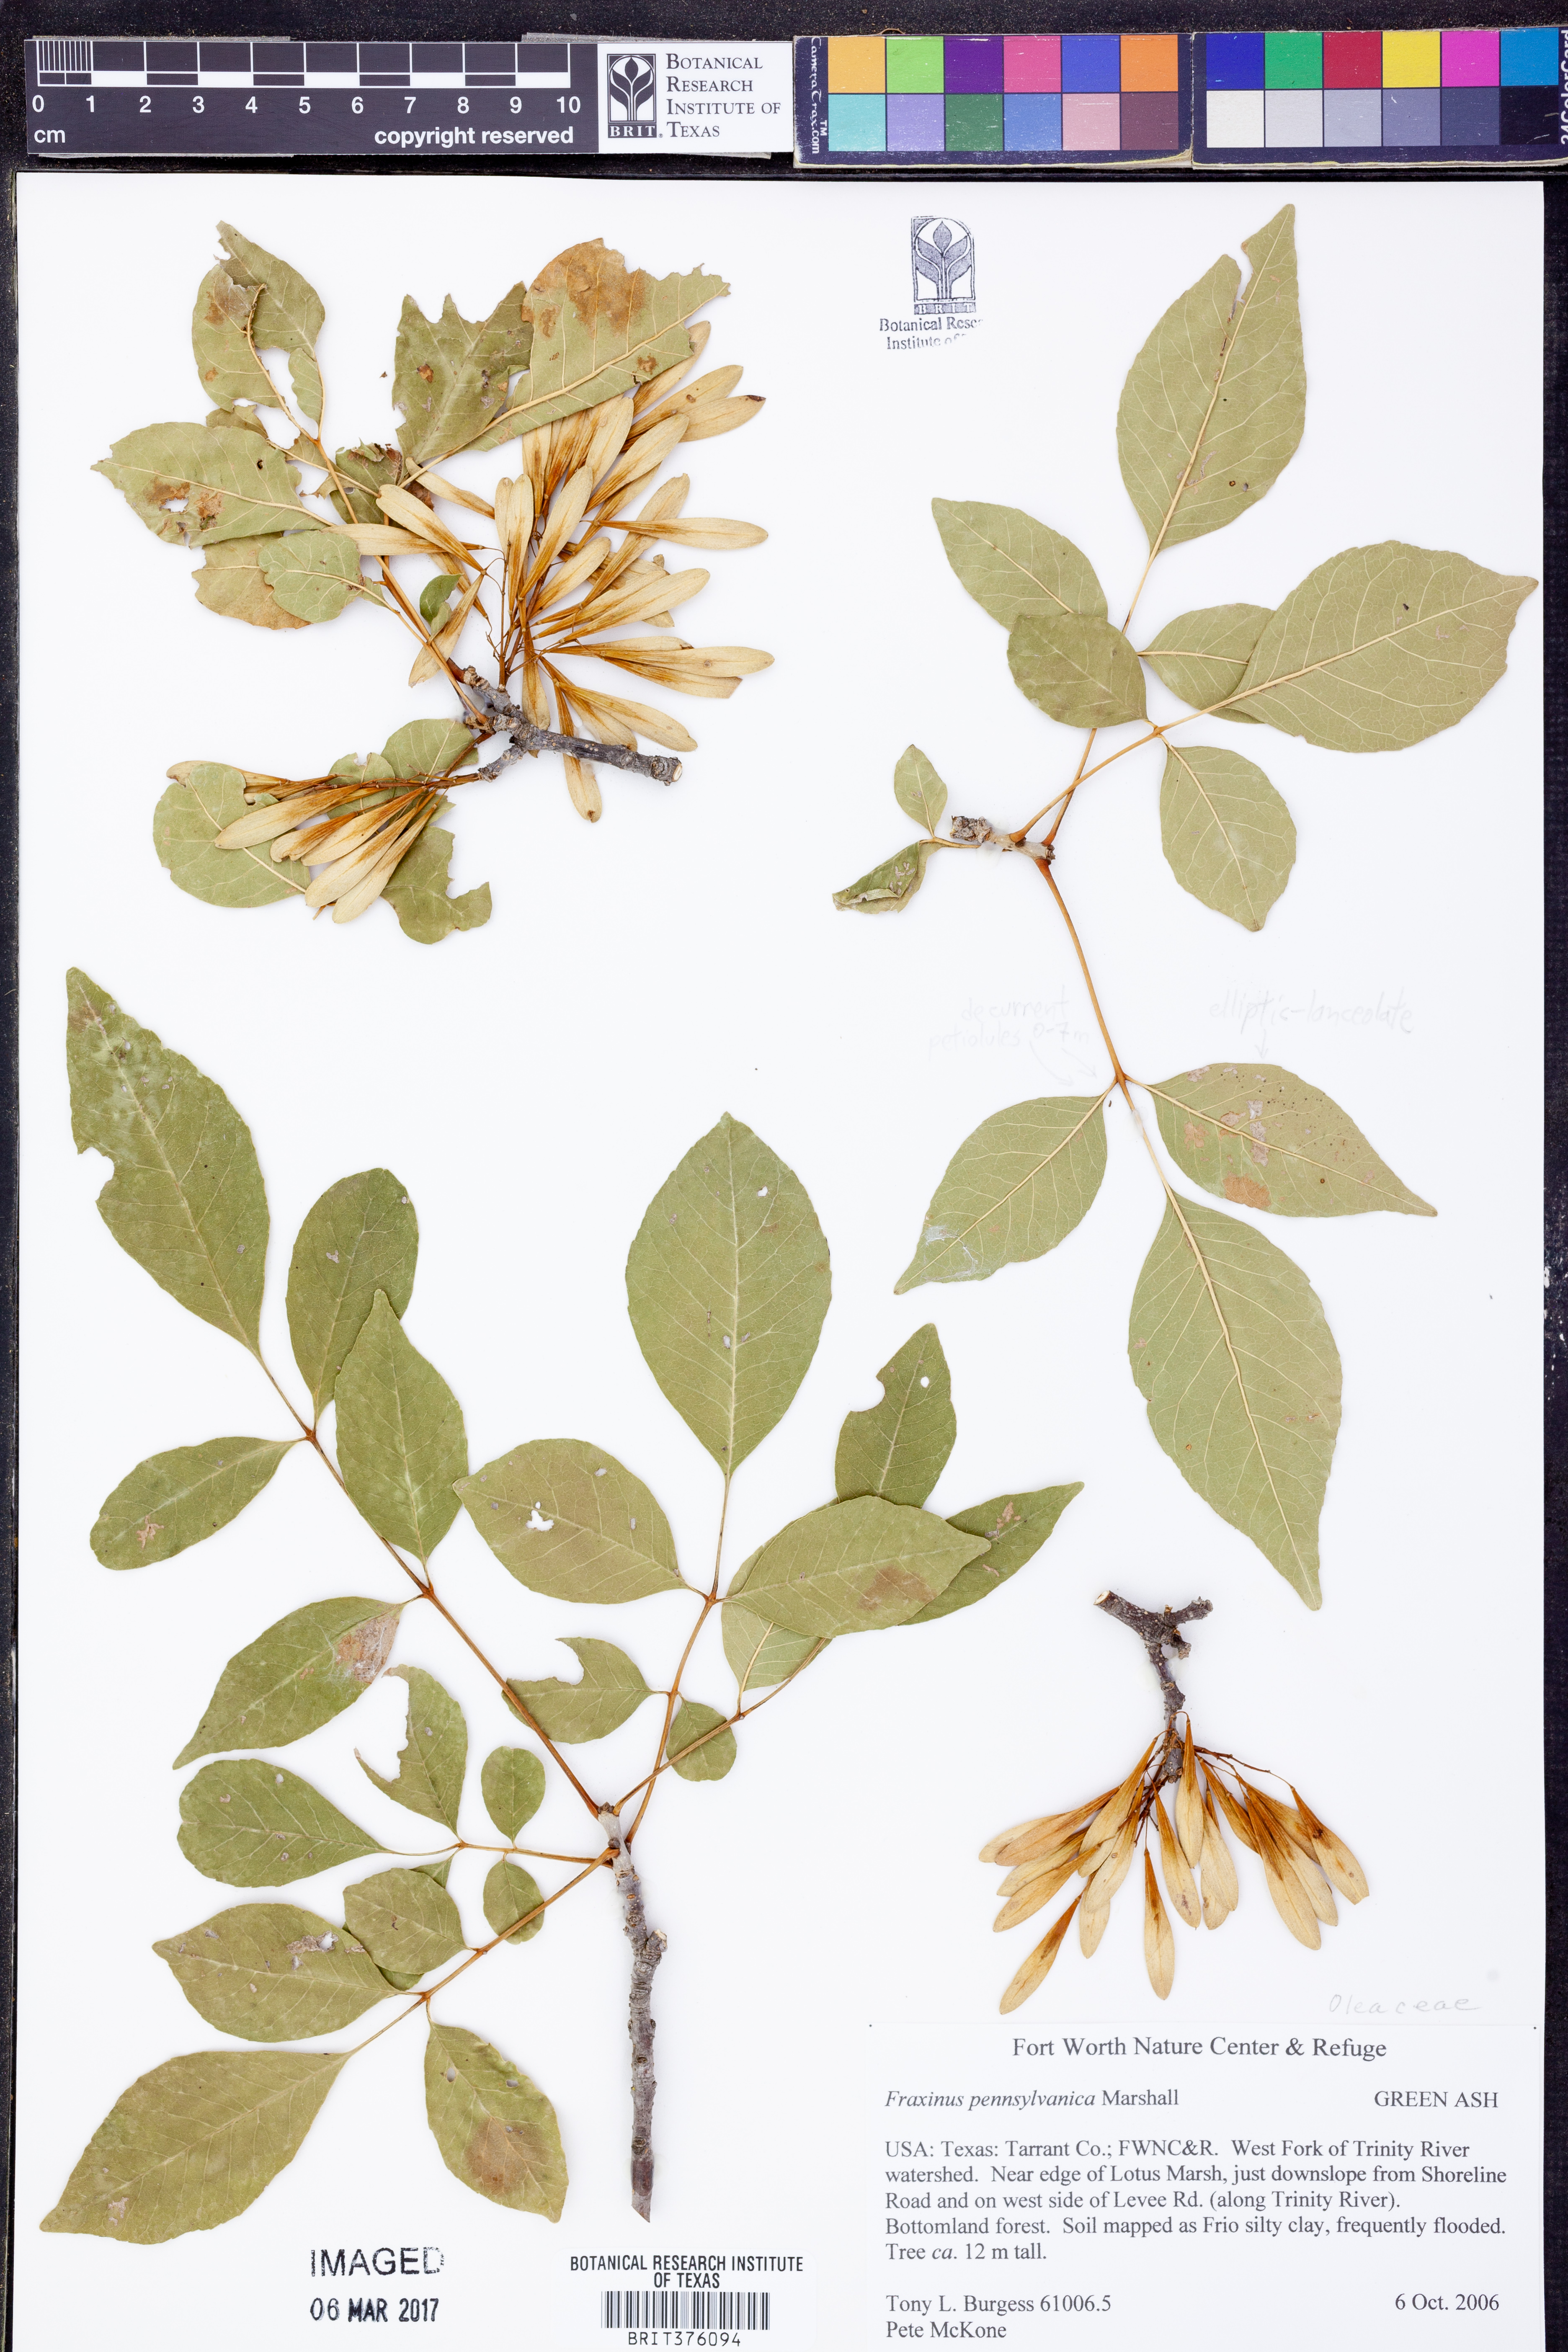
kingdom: Plantae
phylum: Tracheophyta
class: Magnoliopsida
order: Lamiales
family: Oleaceae
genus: Fraxinus
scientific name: Fraxinus pennsylvanica
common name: Green ash
